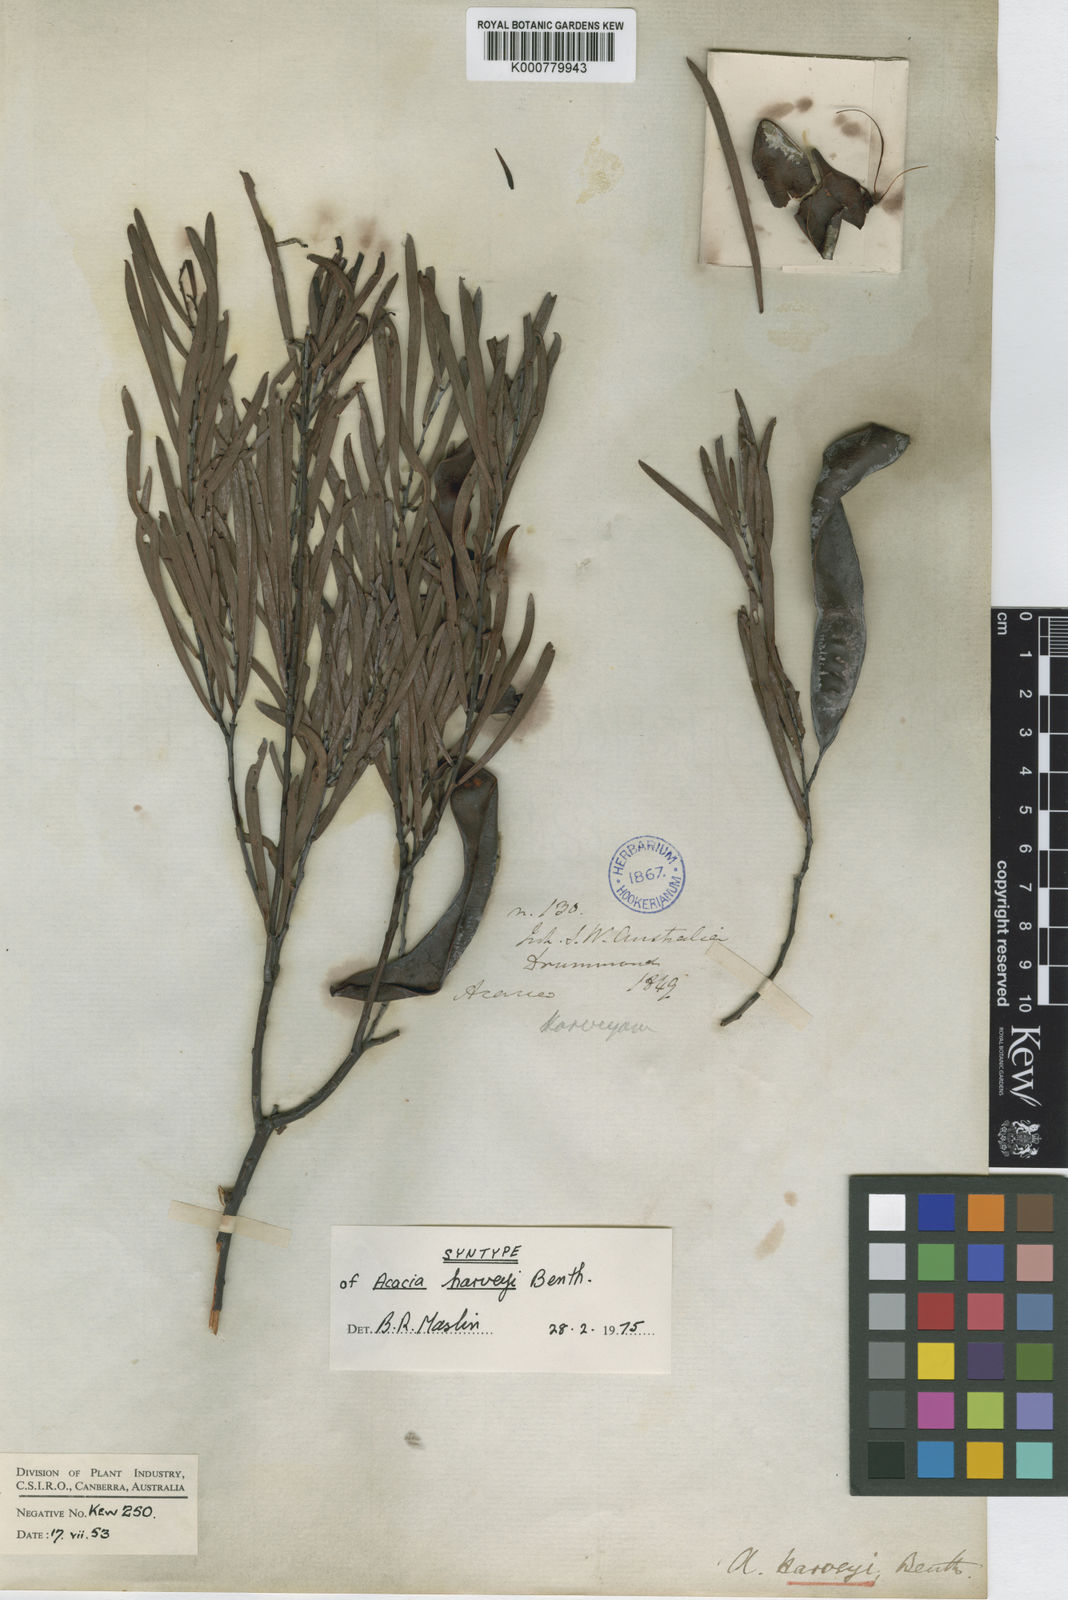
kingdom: Plantae
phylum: Tracheophyta
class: Magnoliopsida
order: Fabales
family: Fabaceae
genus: Acacia
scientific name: Acacia harveyi
